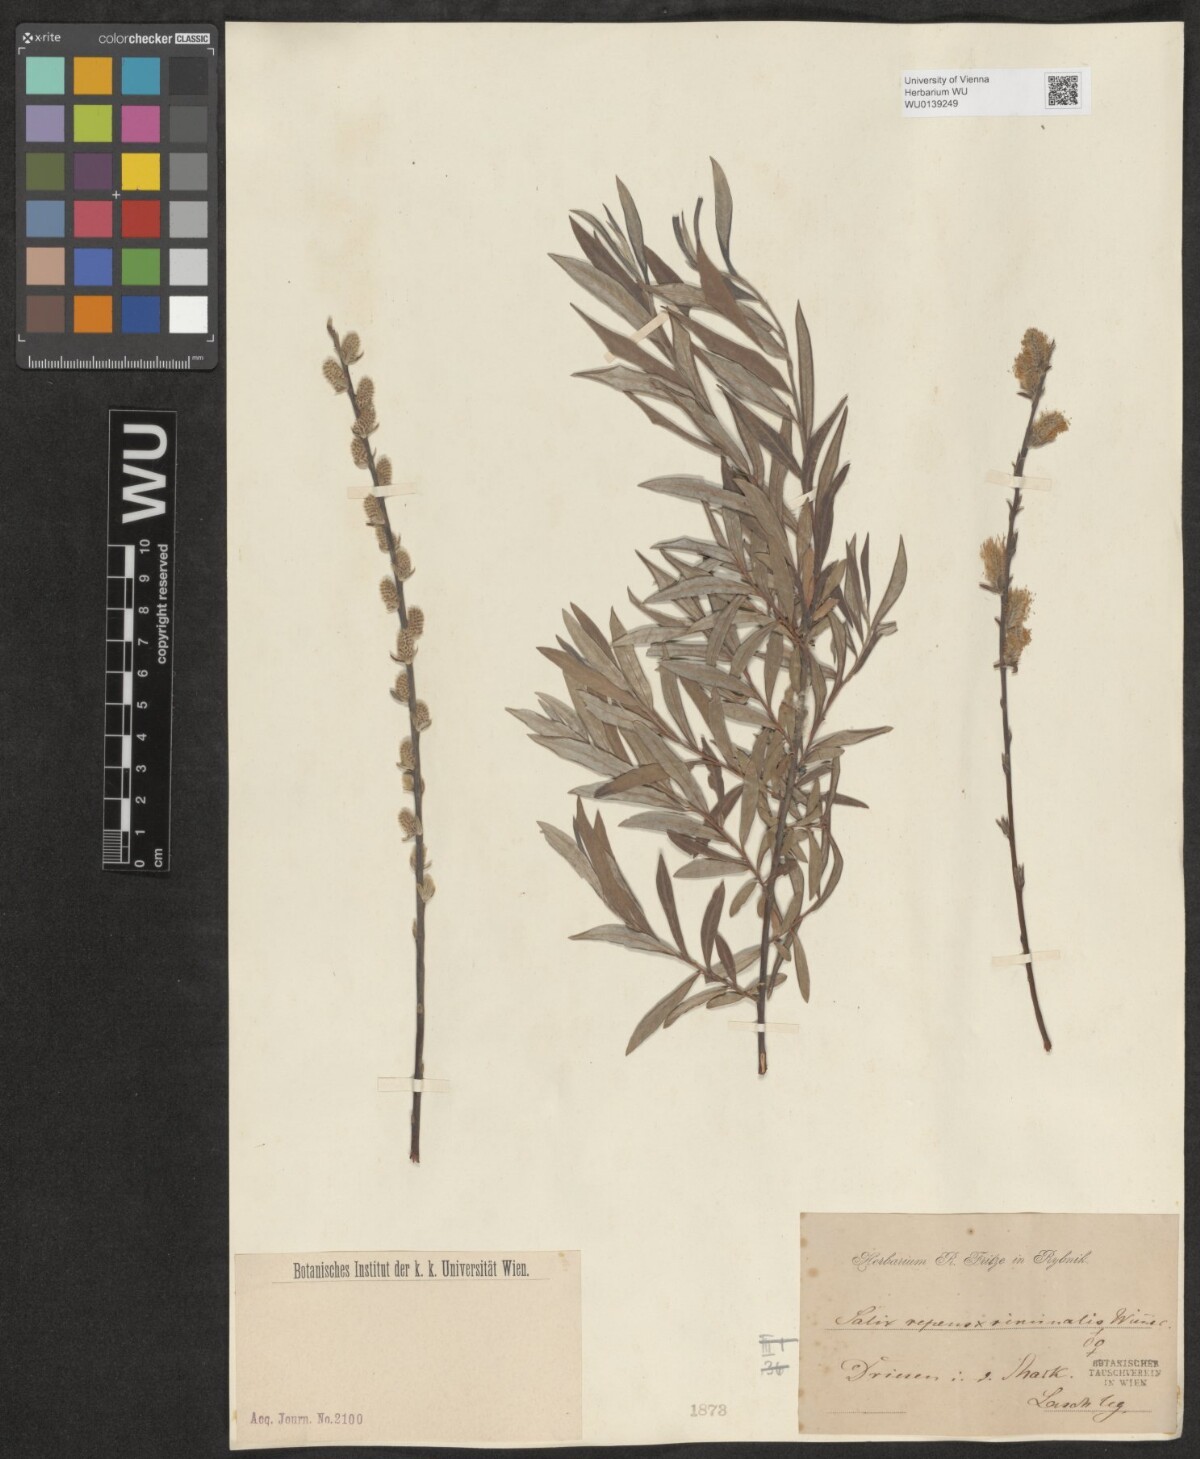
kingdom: Plantae
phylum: Tracheophyta
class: Magnoliopsida
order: Malpighiales
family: Salicaceae
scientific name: Salicaceae
